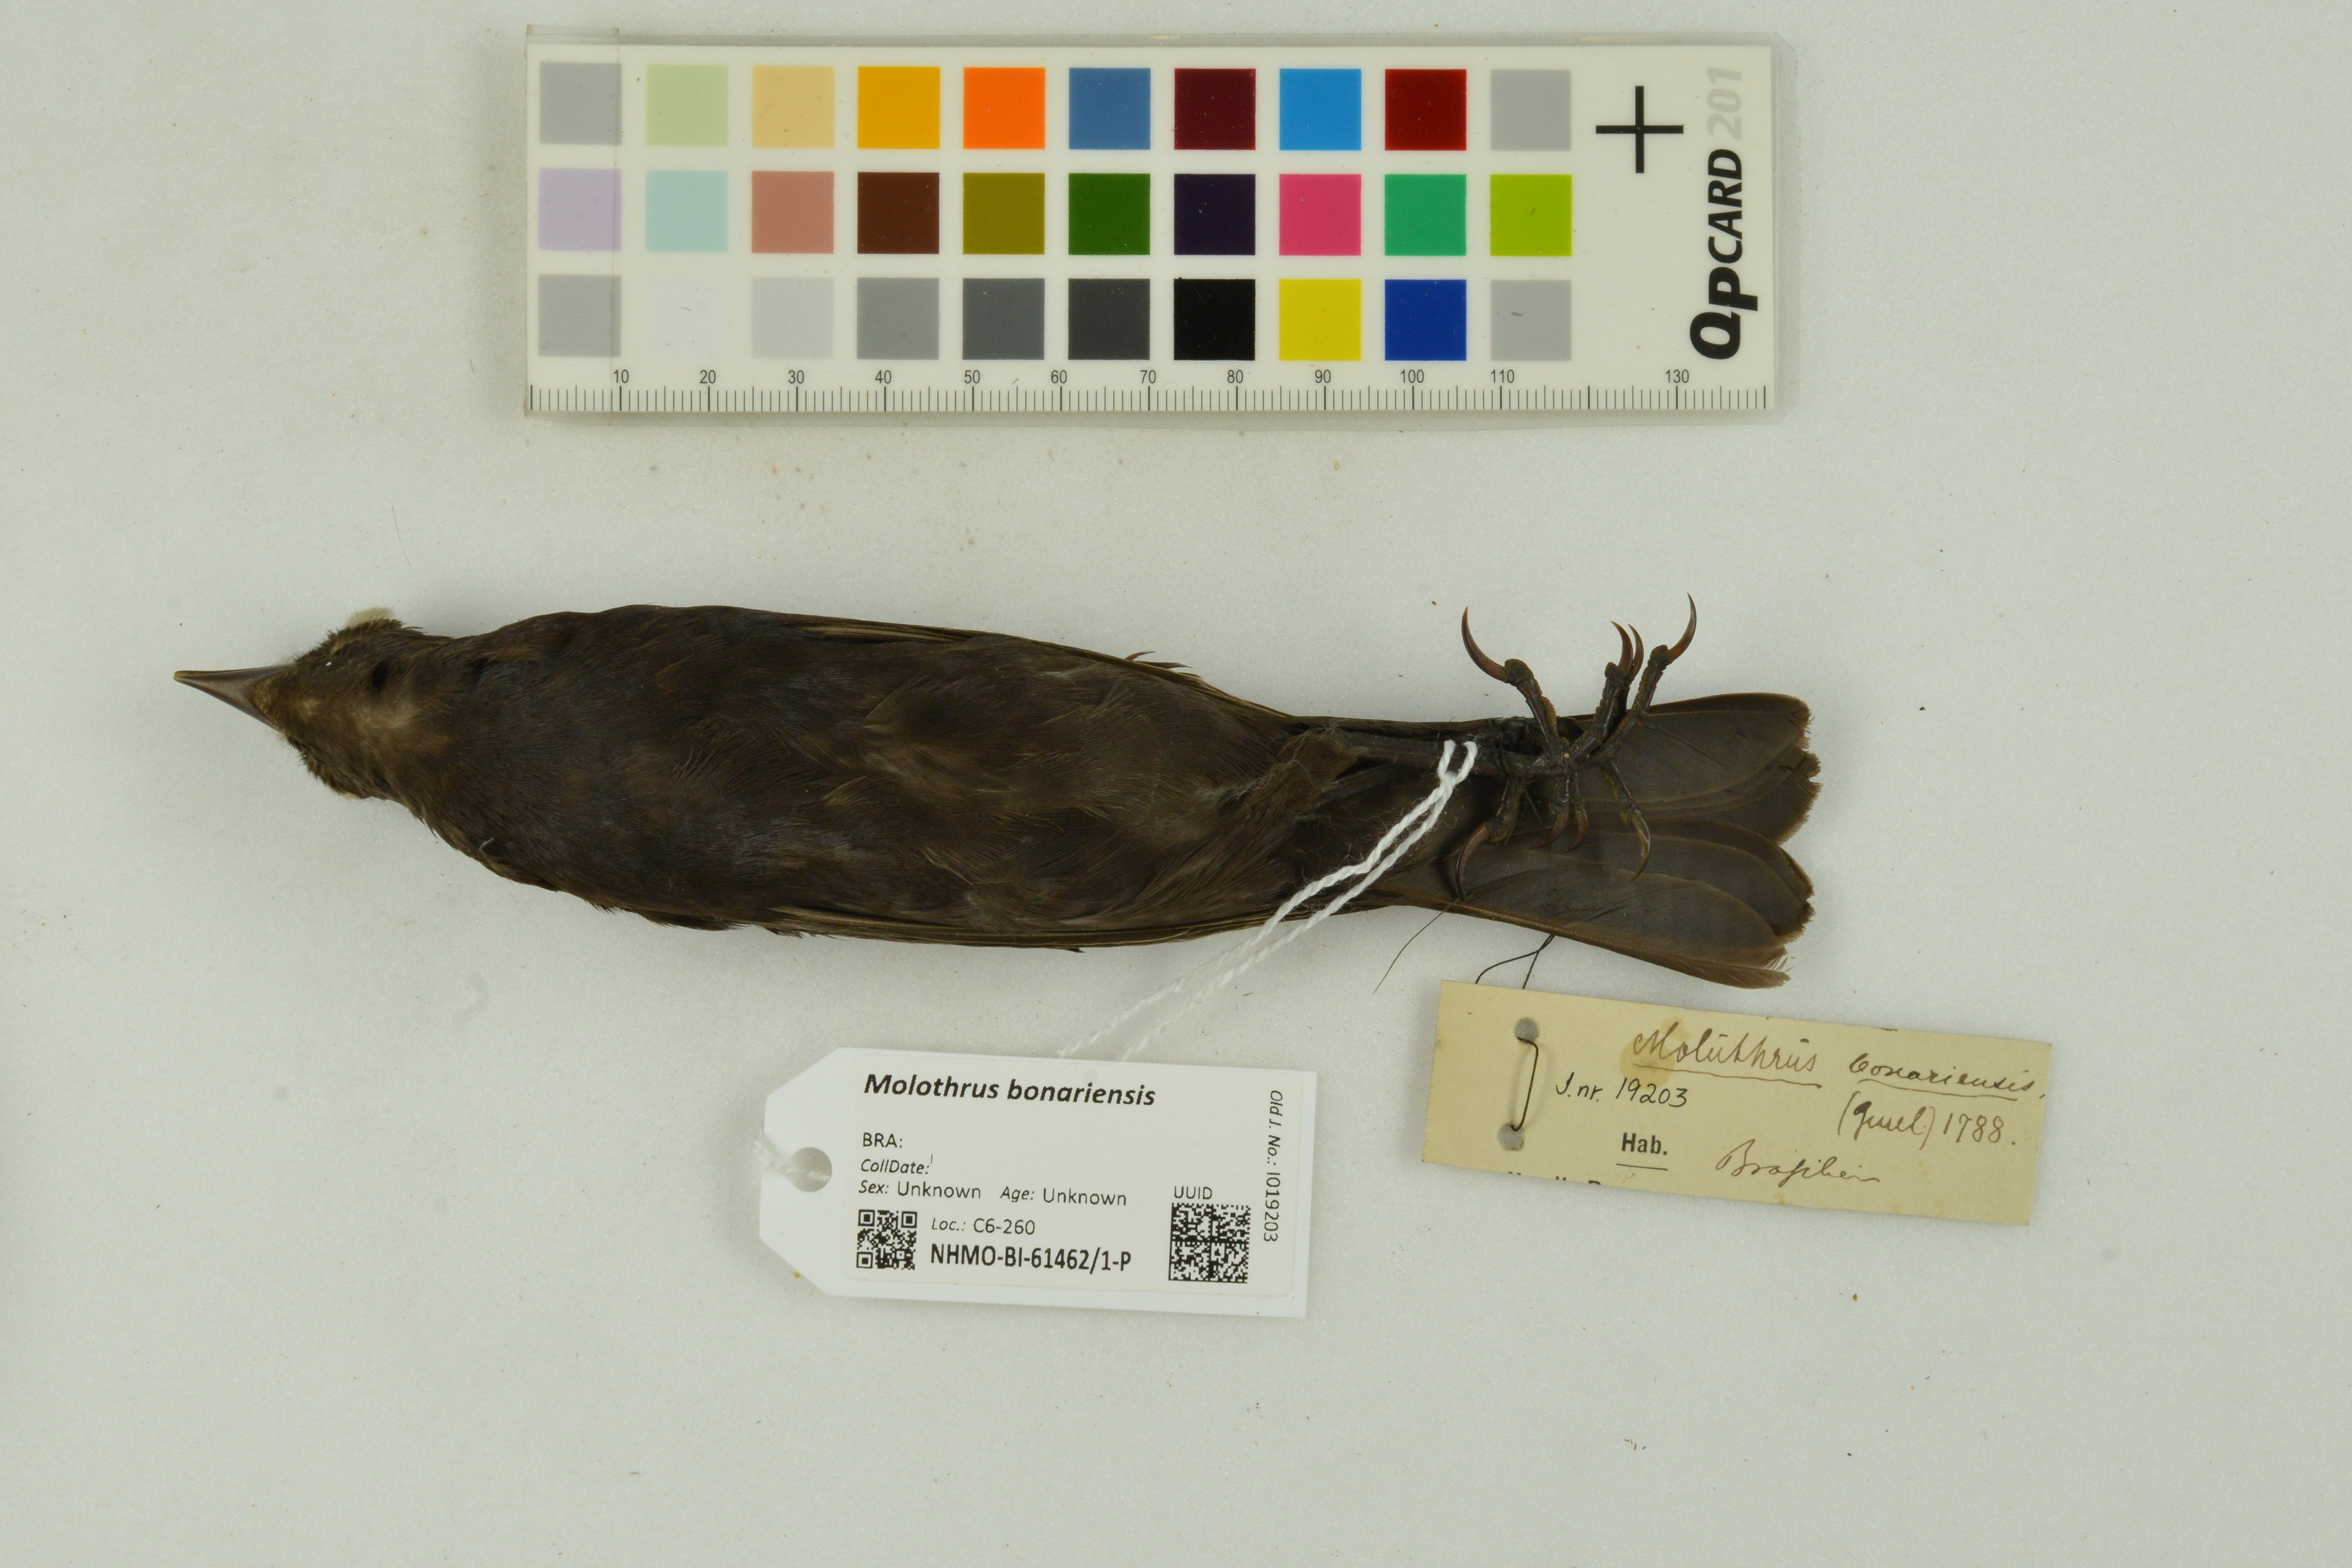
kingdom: Animalia
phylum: Chordata
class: Aves
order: Passeriformes
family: Icteridae
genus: Molothrus
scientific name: Molothrus bonariensis
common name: Shiny cowbird
